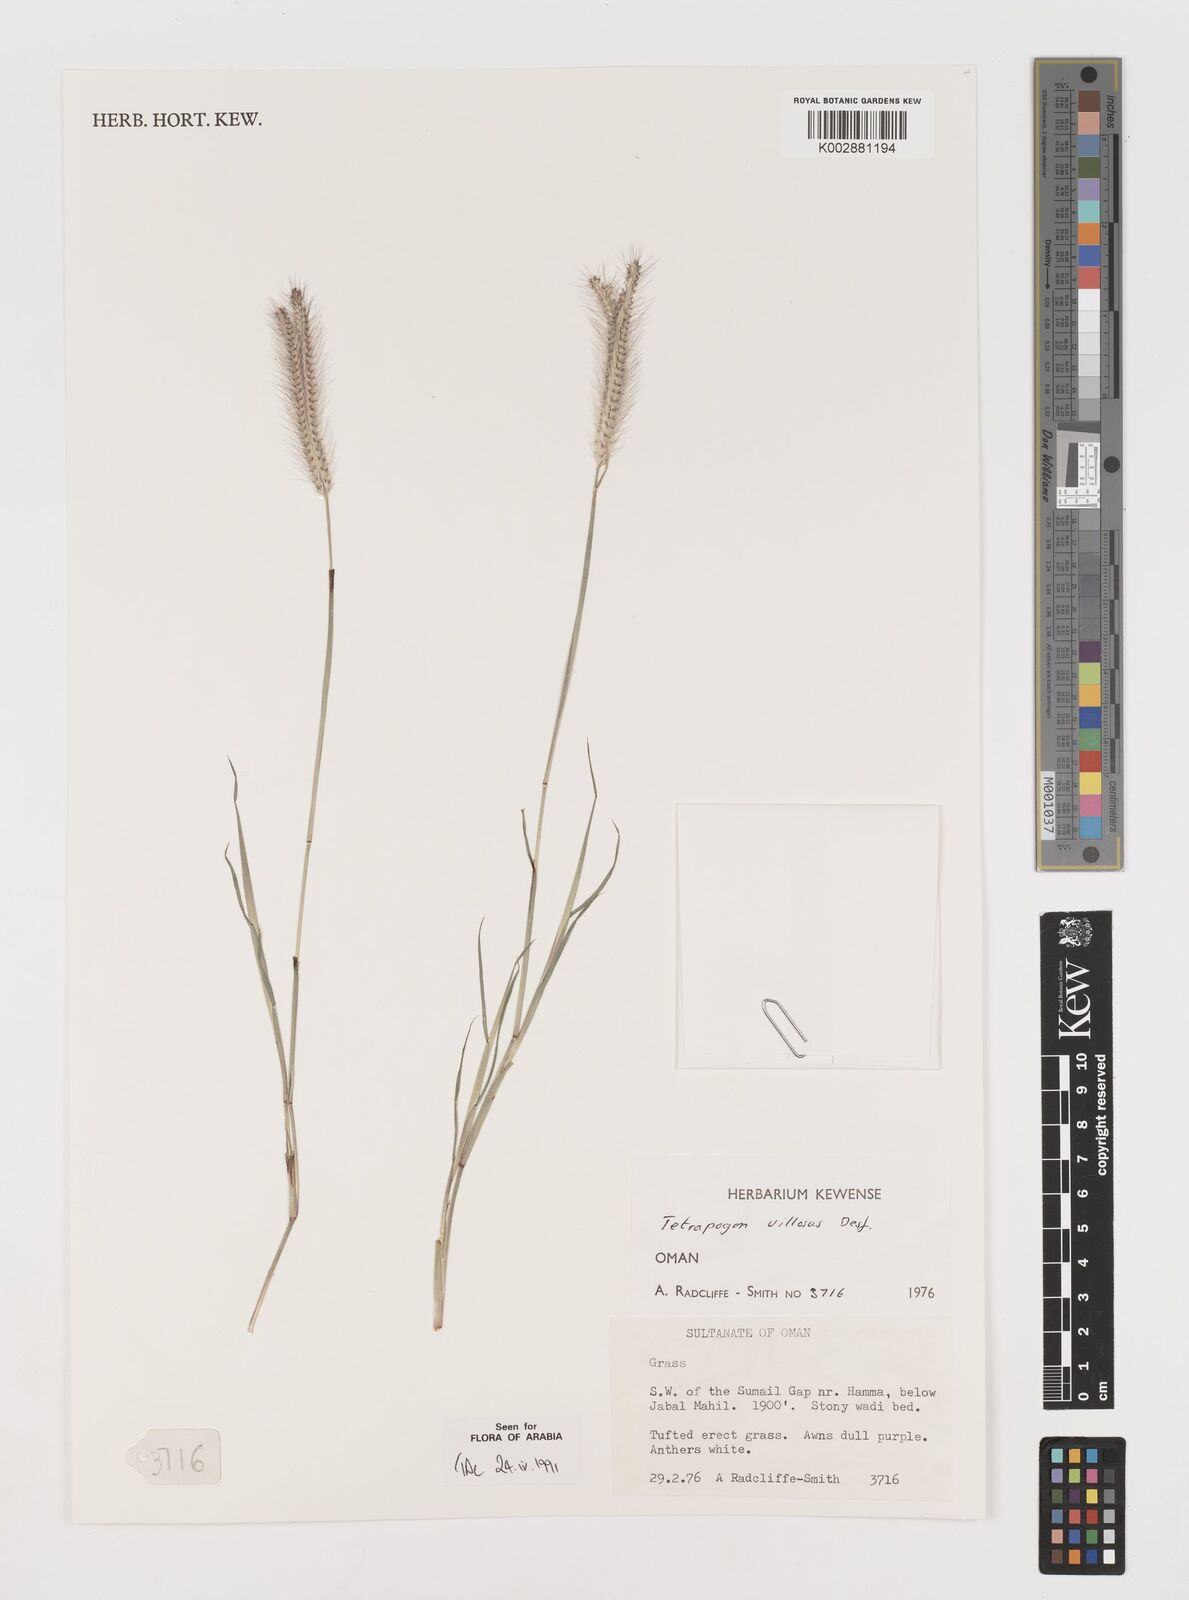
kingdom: Plantae
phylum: Tracheophyta
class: Liliopsida
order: Poales
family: Poaceae
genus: Tetrapogon
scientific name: Tetrapogon villosus
